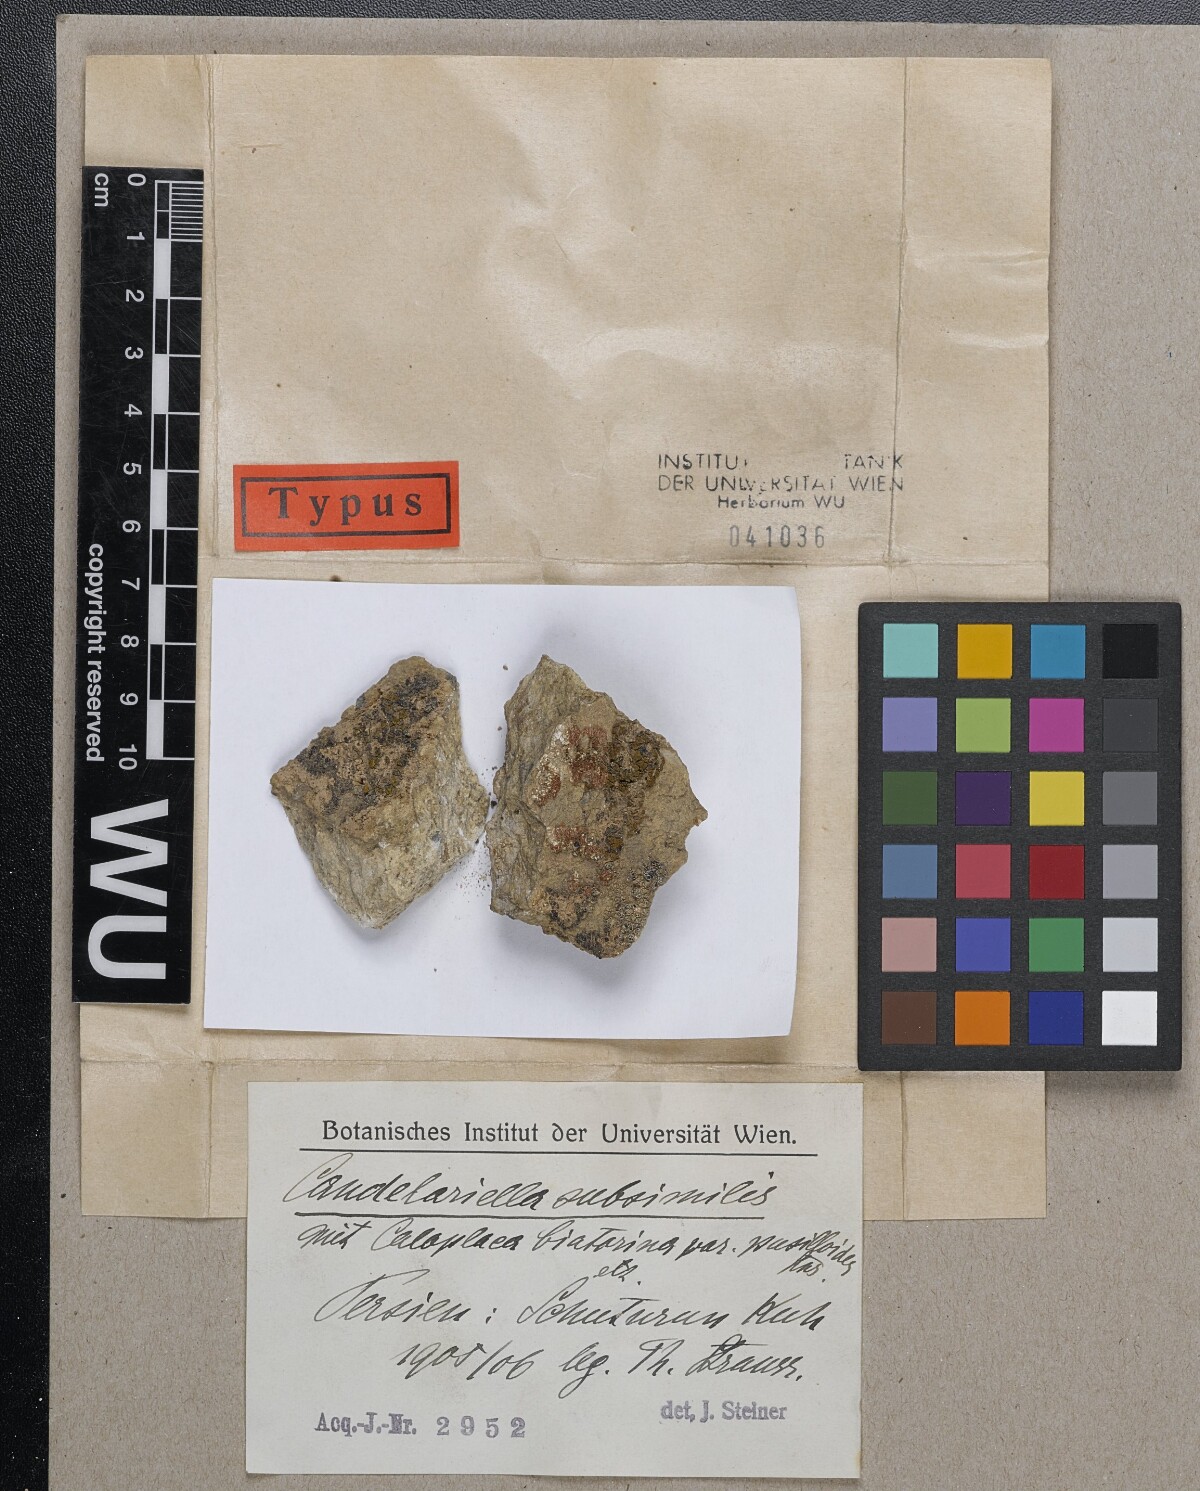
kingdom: Fungi
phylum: Ascomycota
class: Candelariomycetes
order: Candelariales
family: Candelariaceae
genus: Candelariella
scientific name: Candelariella
